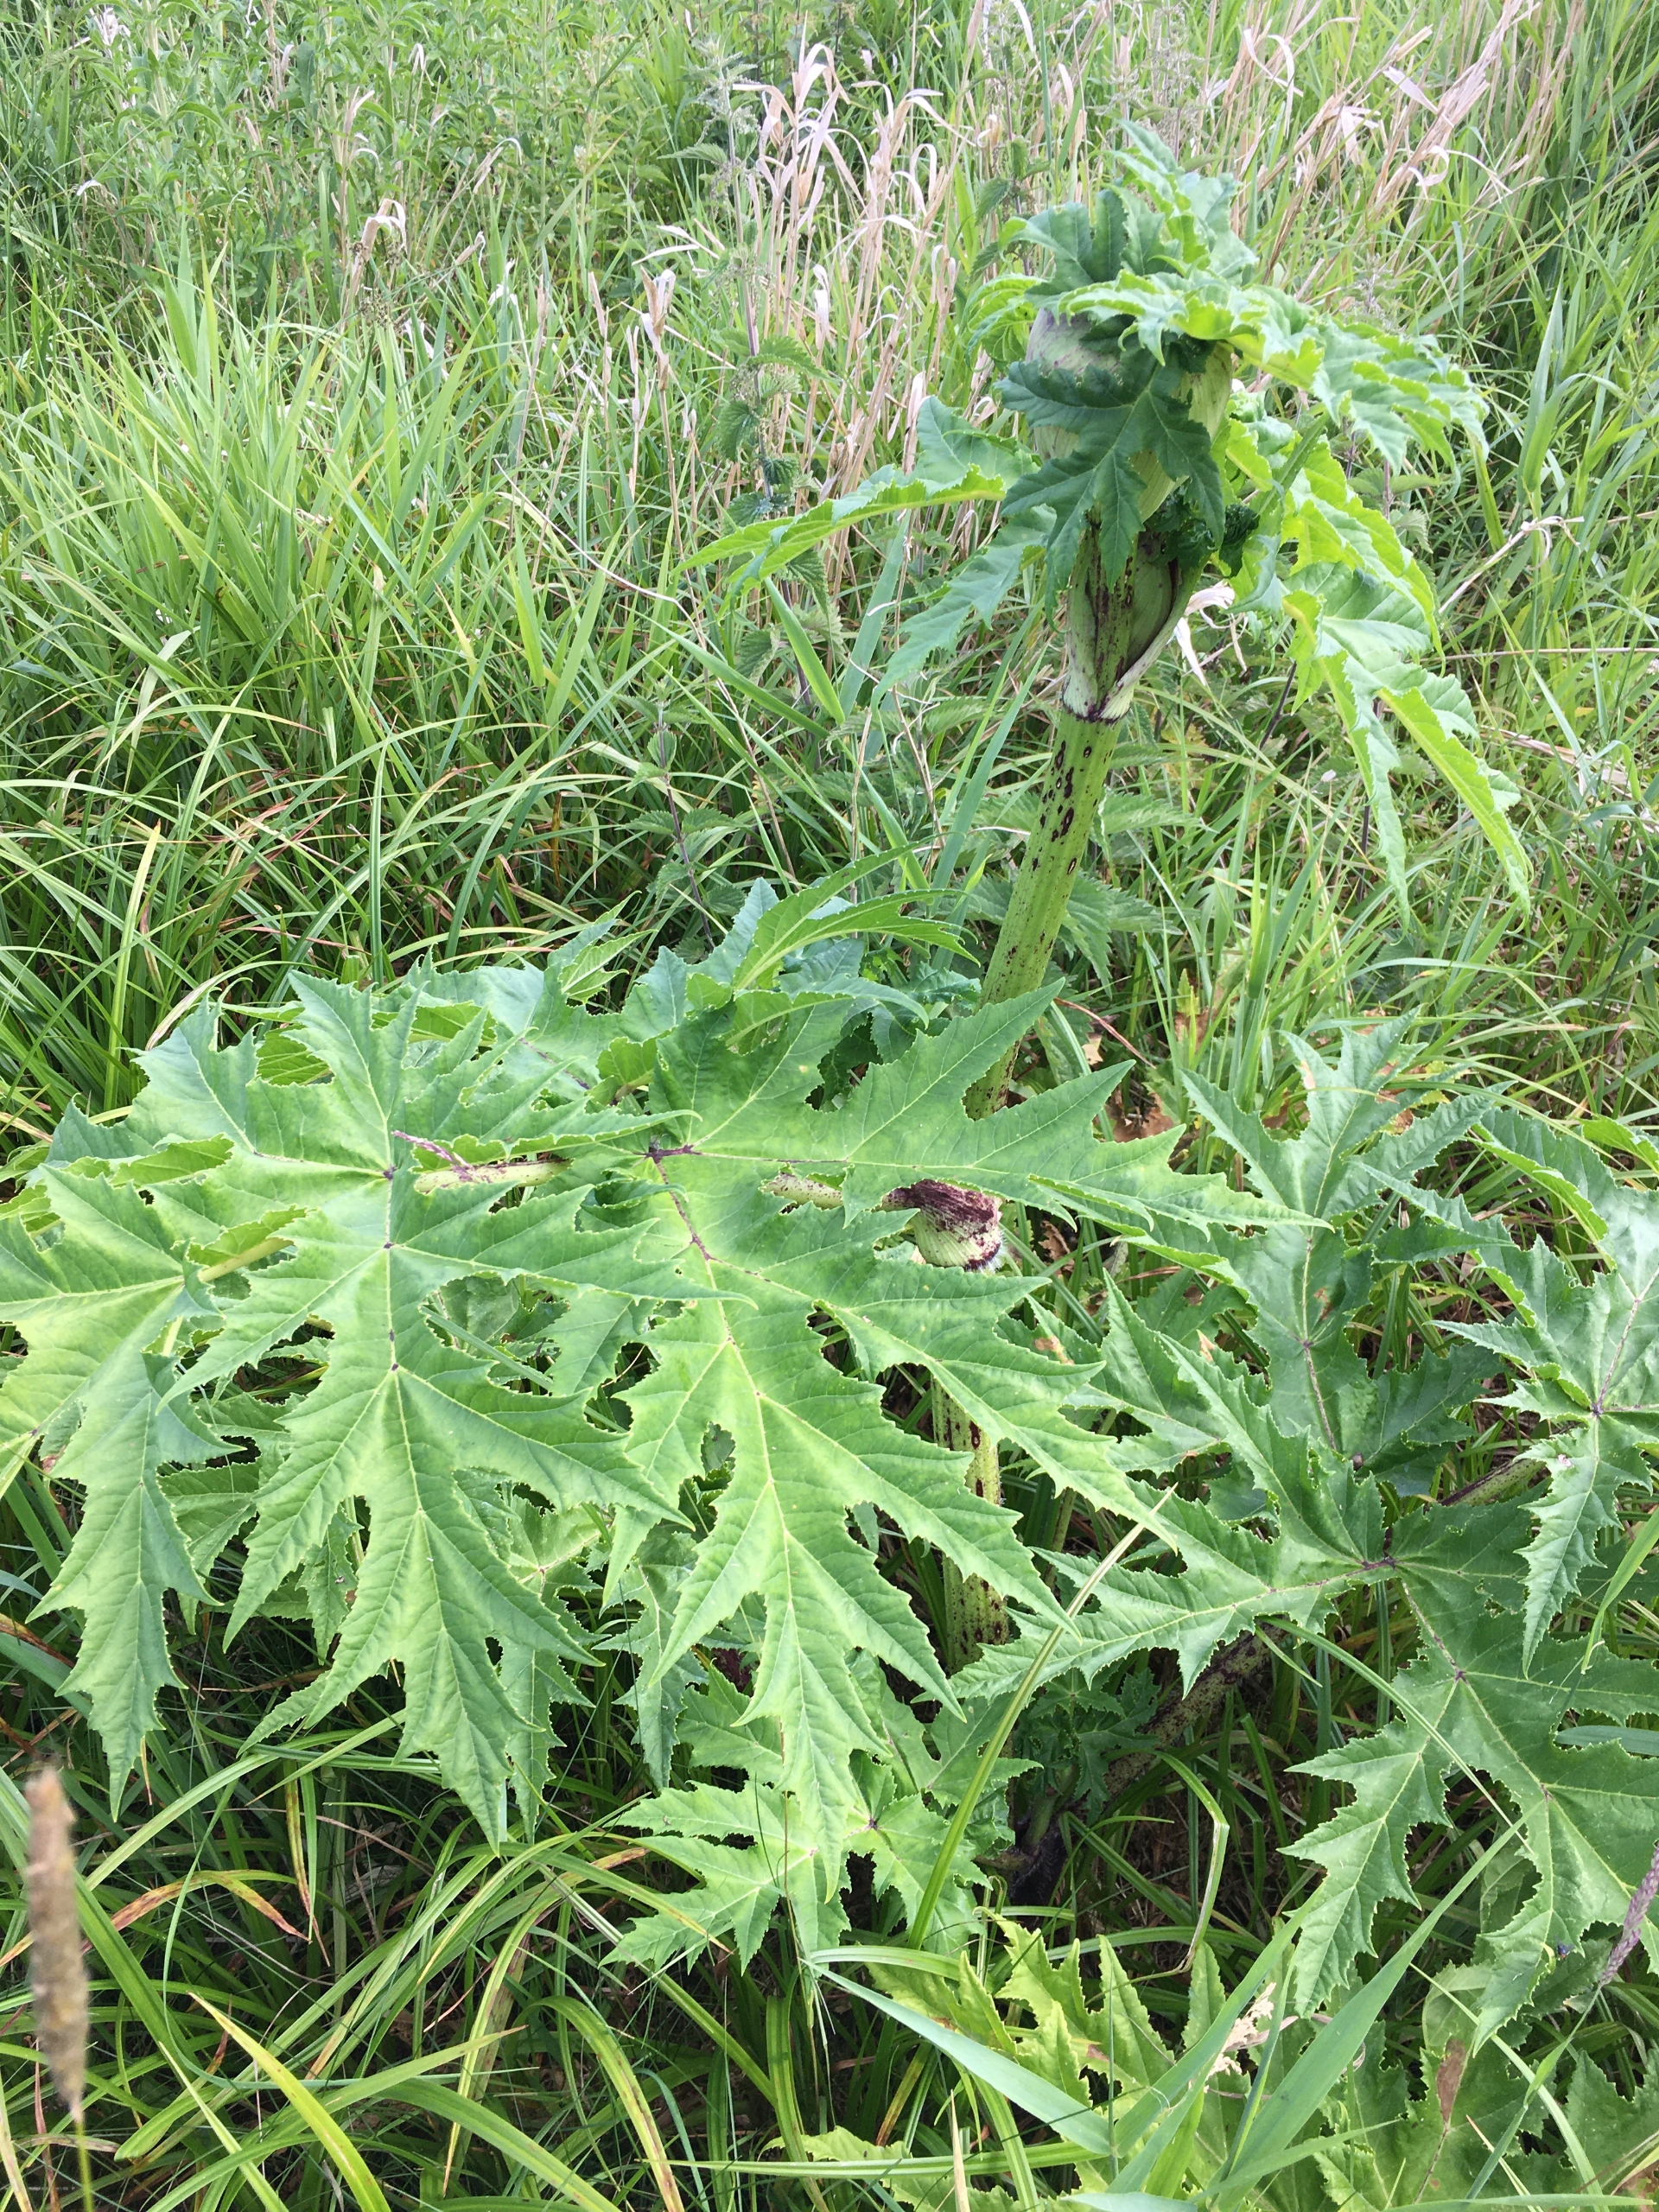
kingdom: Plantae
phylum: Tracheophyta
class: Magnoliopsida
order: Apiales
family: Apiaceae
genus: Heracleum
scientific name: Heracleum mantegazzianum
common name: Kæmpe-bjørneklo
